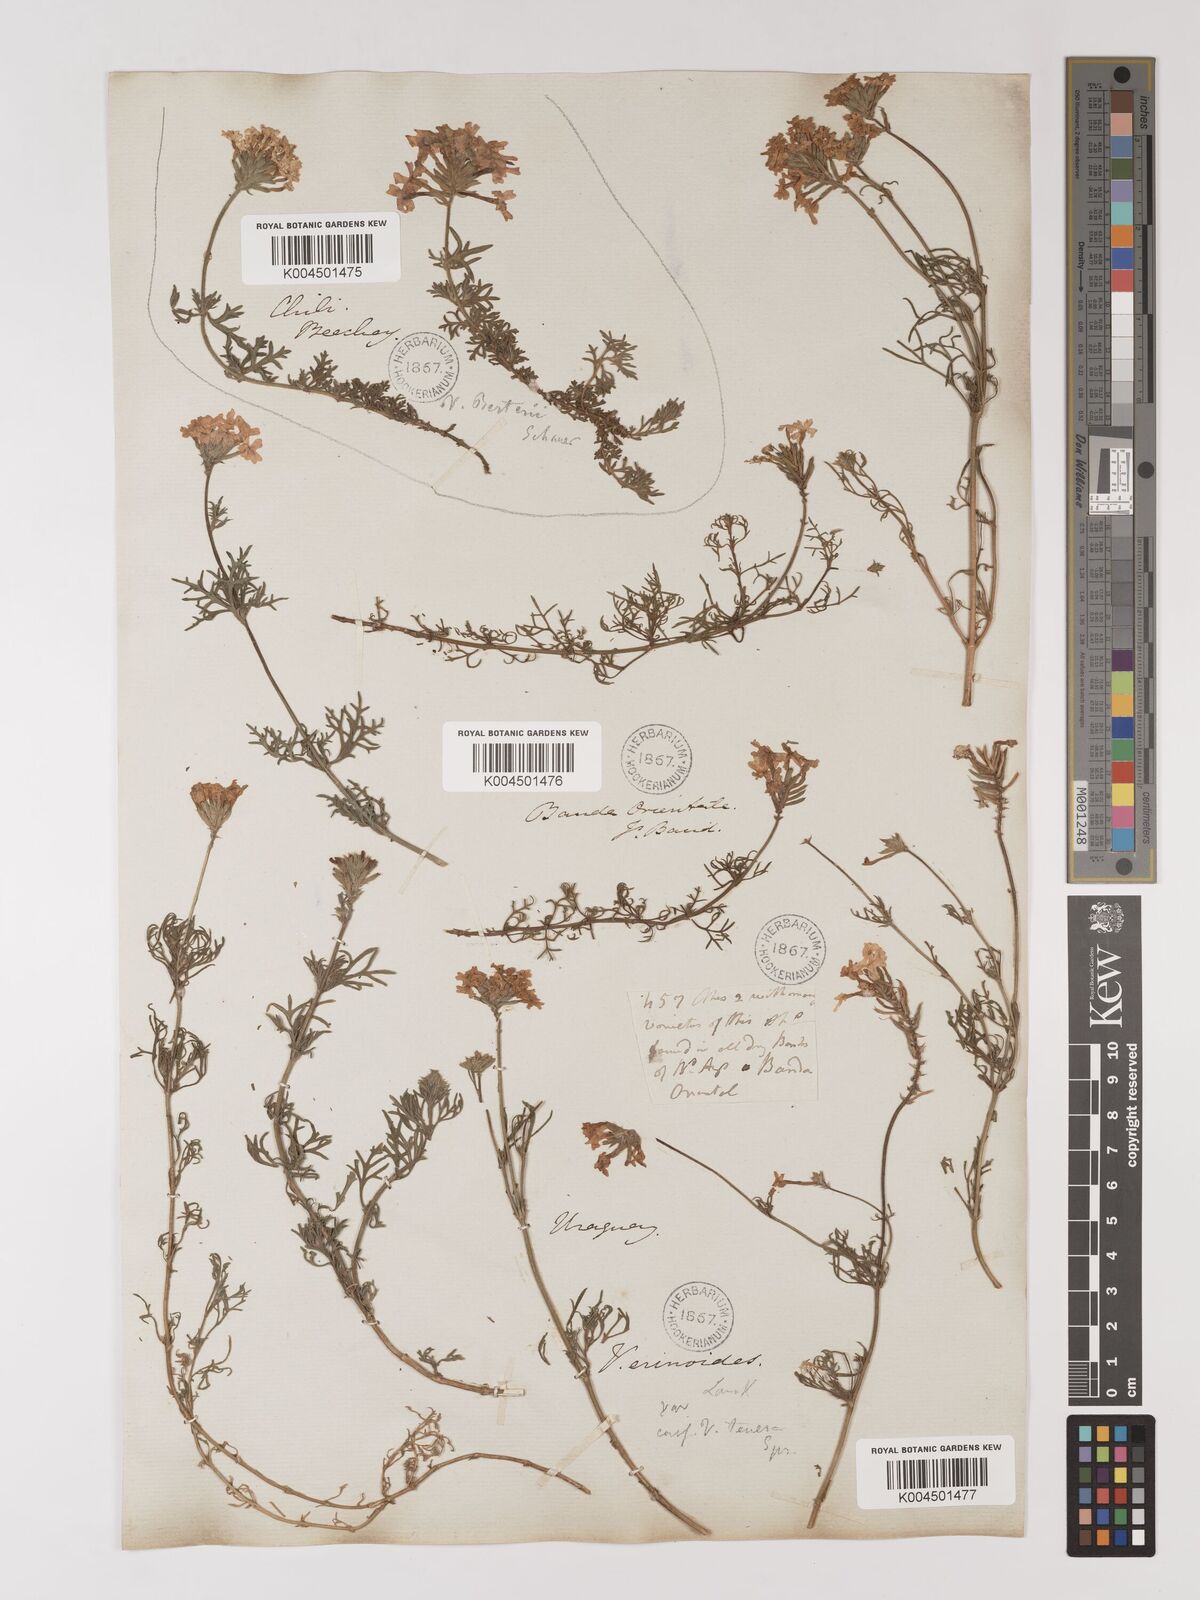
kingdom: Plantae
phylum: Tracheophyta
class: Magnoliopsida
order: Lamiales
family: Verbenaceae
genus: Verbena
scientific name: Verbena tenera
